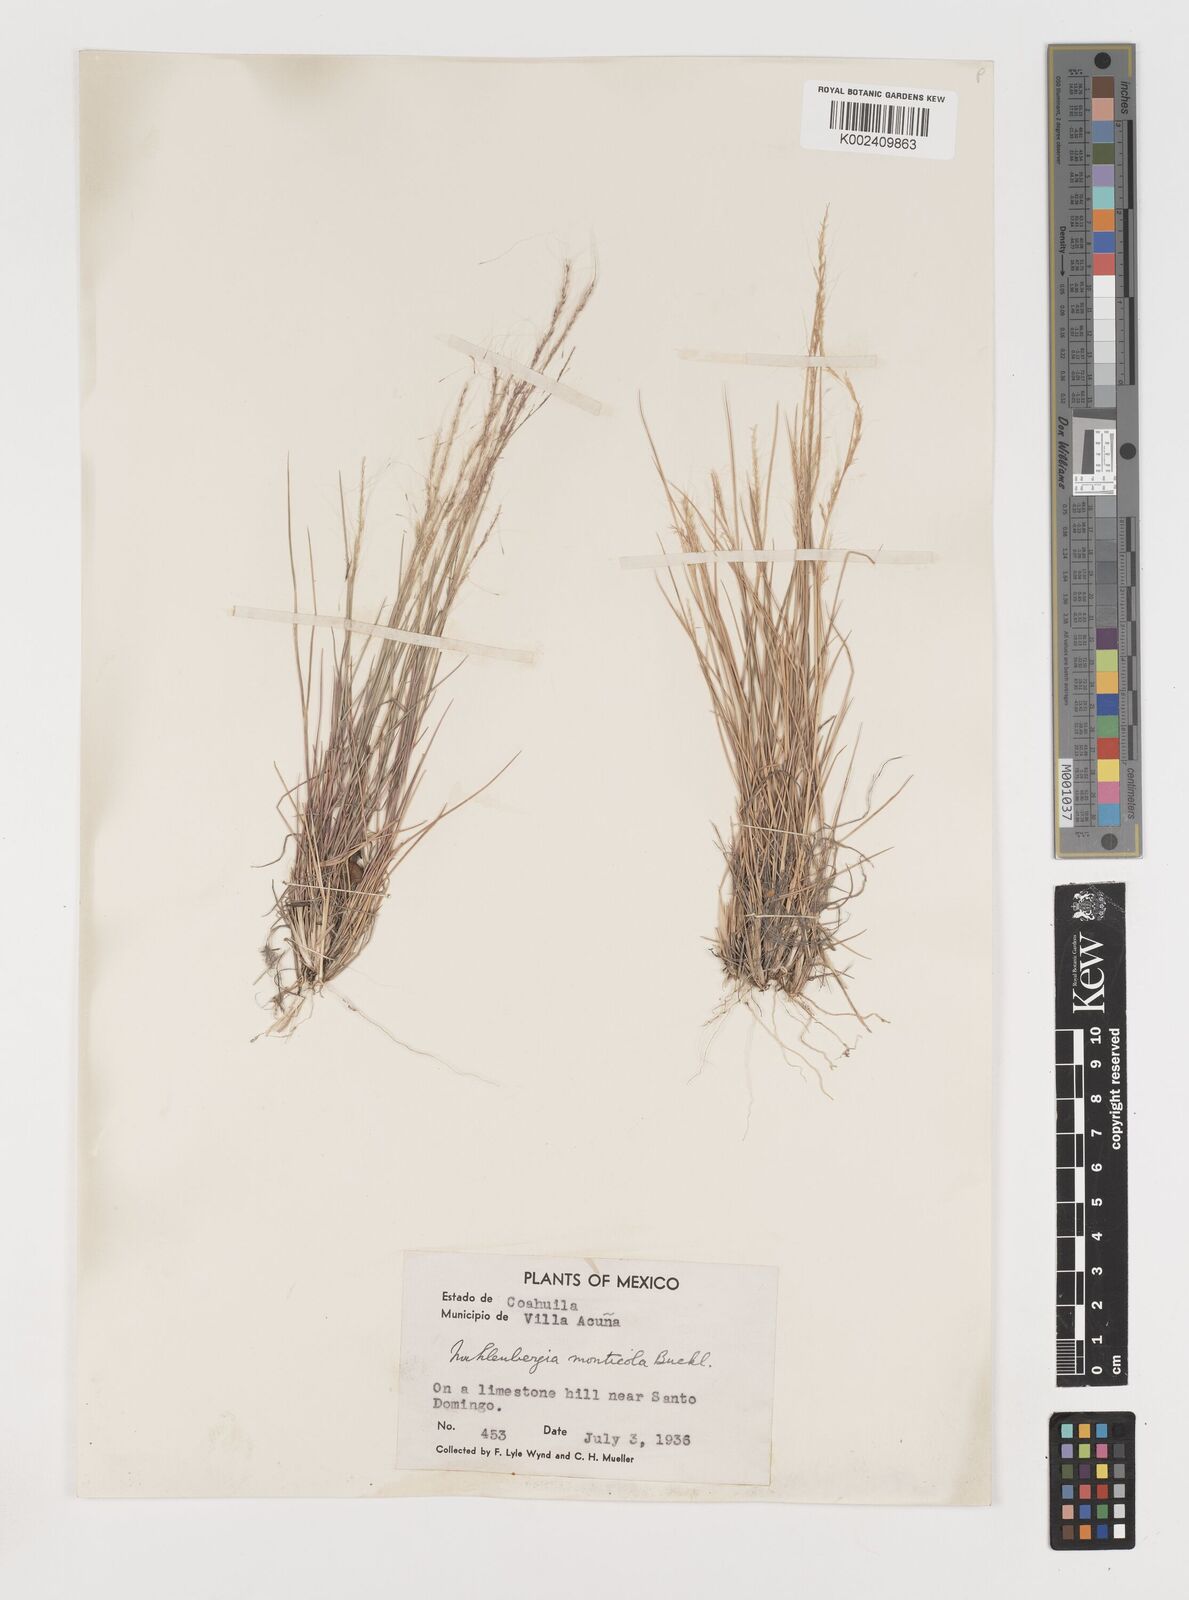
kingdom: Plantae
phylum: Tracheophyta
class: Liliopsida
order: Poales
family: Poaceae
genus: Muhlenbergia
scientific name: Muhlenbergia tenuifolia
